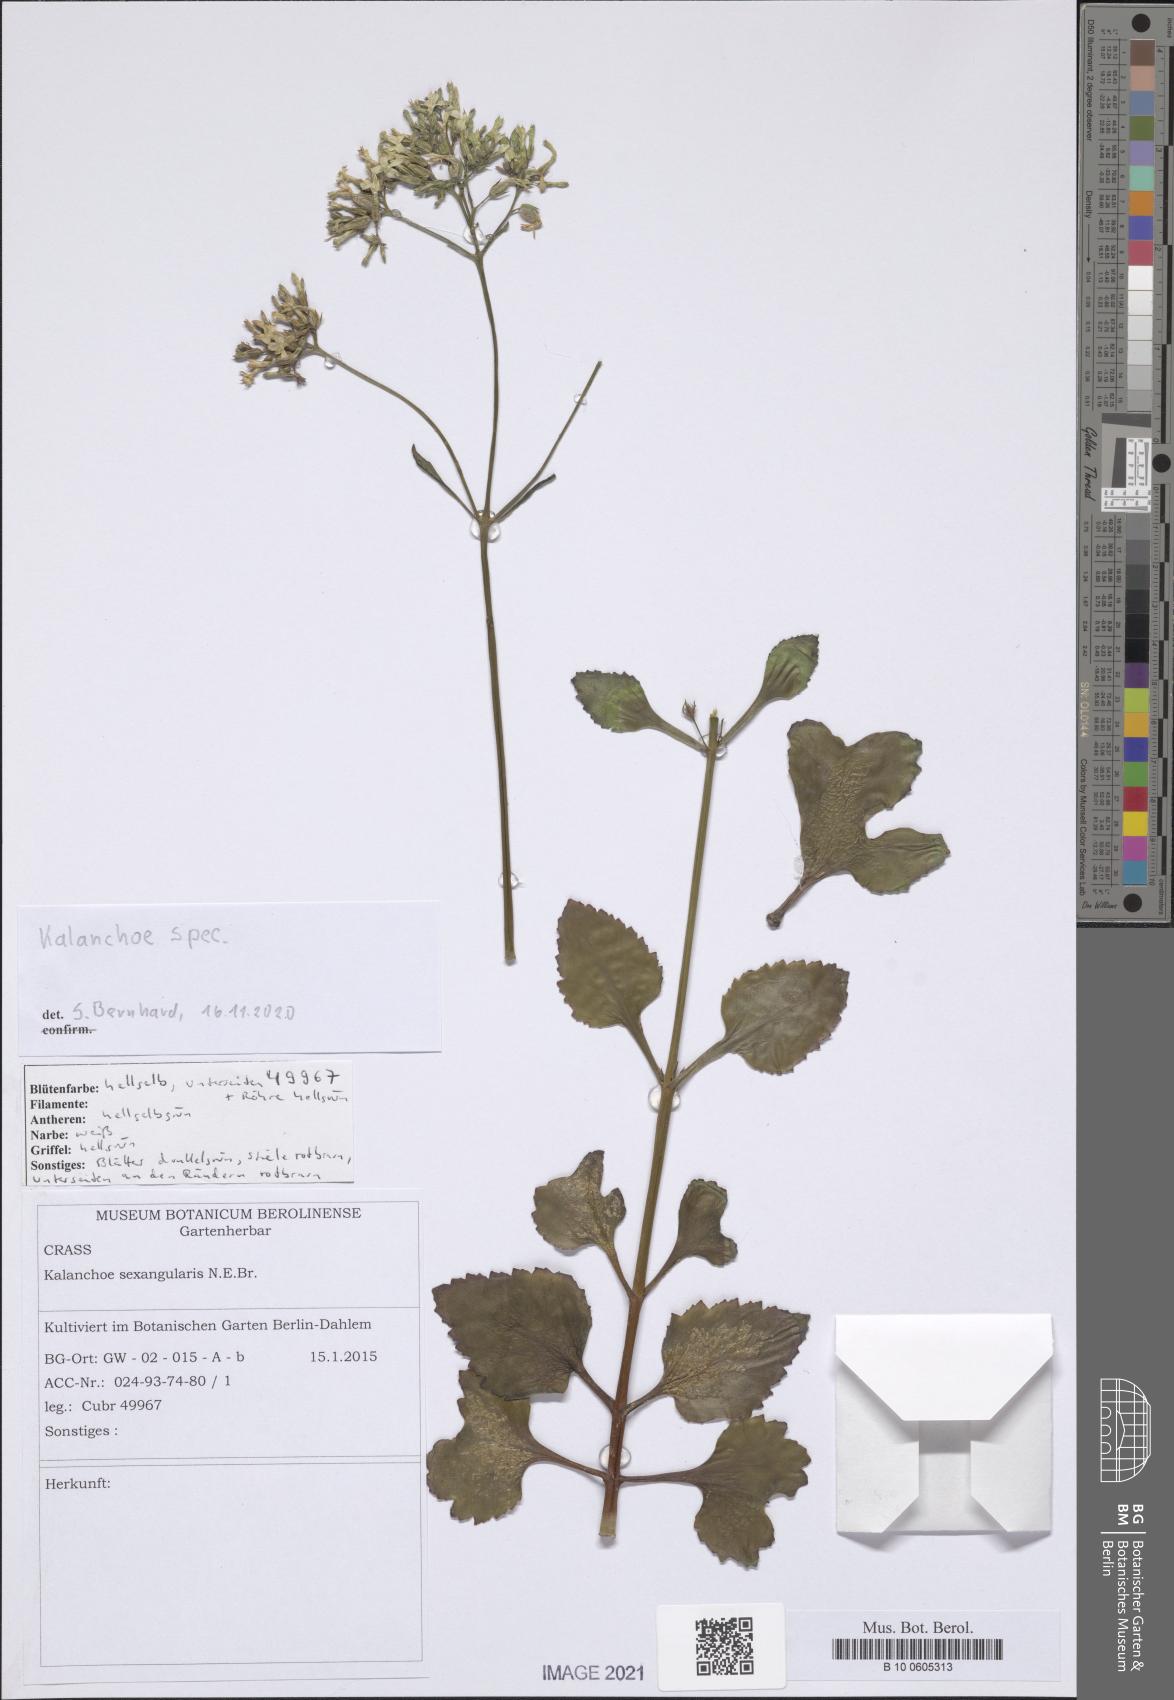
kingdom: Plantae
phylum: Tracheophyta
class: Magnoliopsida
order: Saxifragales
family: Crassulaceae
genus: Kalanchoe
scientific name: Kalanchoe
